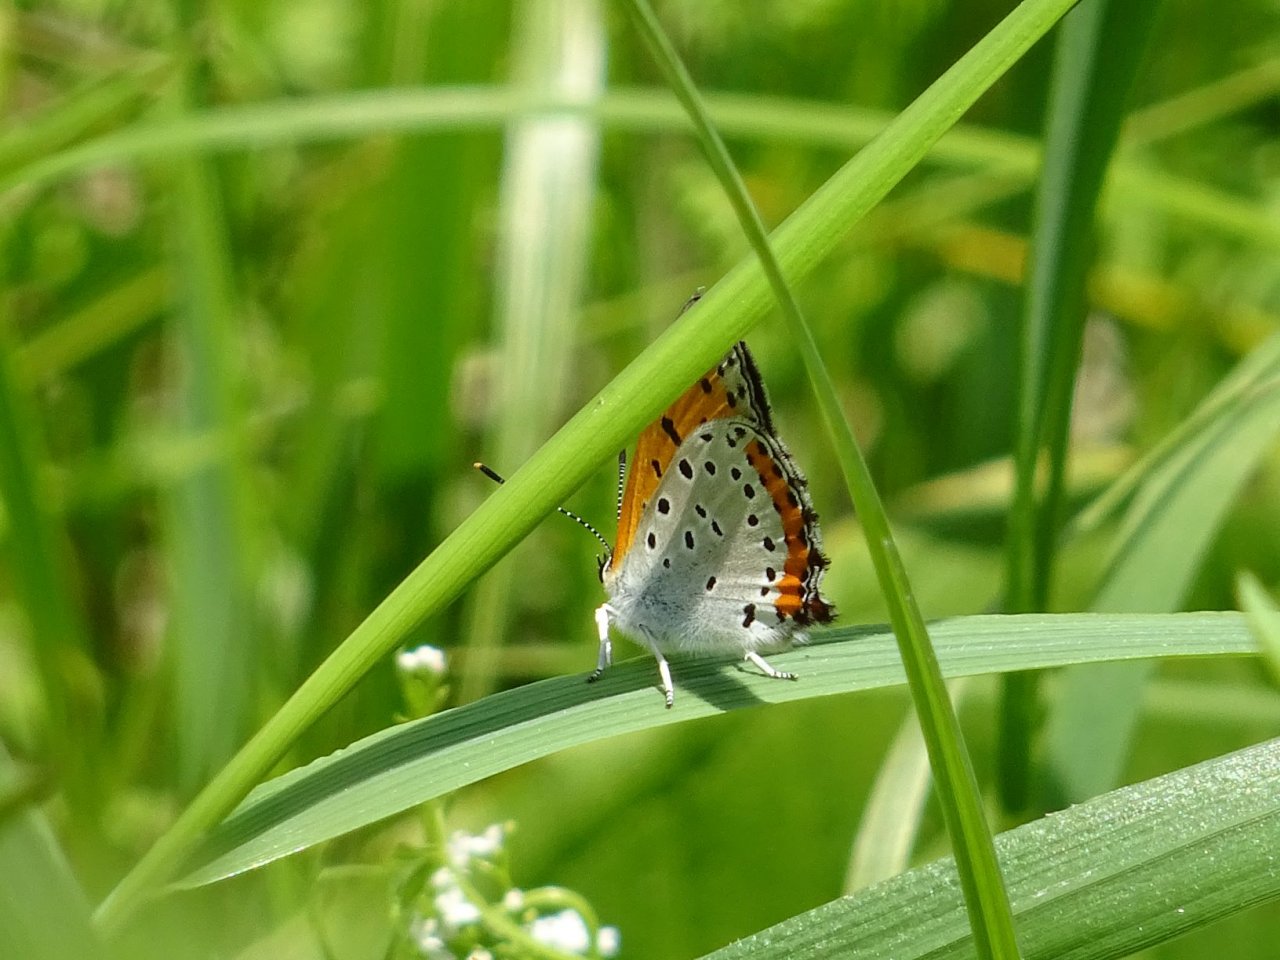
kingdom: Animalia
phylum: Arthropoda
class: Insecta
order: Lepidoptera
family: Sesiidae
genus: Sesia
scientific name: Sesia Lycaena hyllus
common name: Bronze Copper
